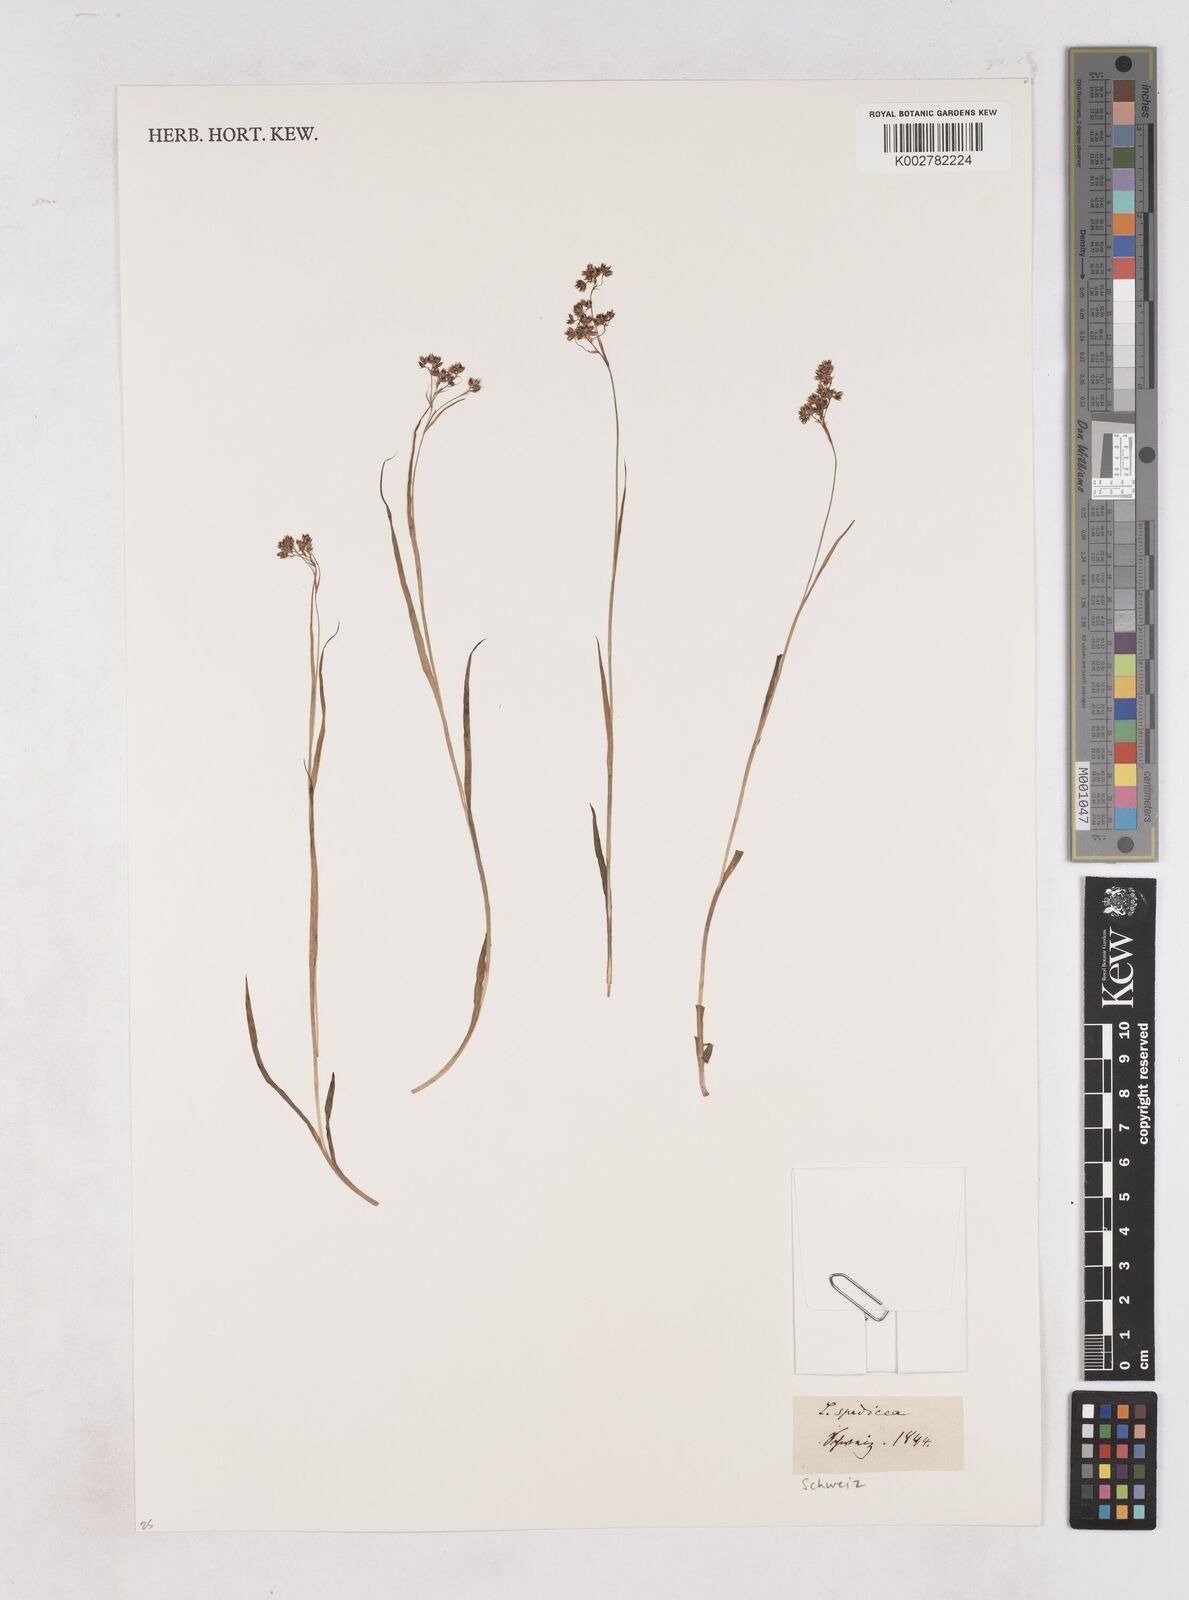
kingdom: Plantae
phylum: Tracheophyta
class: Liliopsida
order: Poales
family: Juncaceae
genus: Luzula
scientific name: Luzula alpinopilosa
